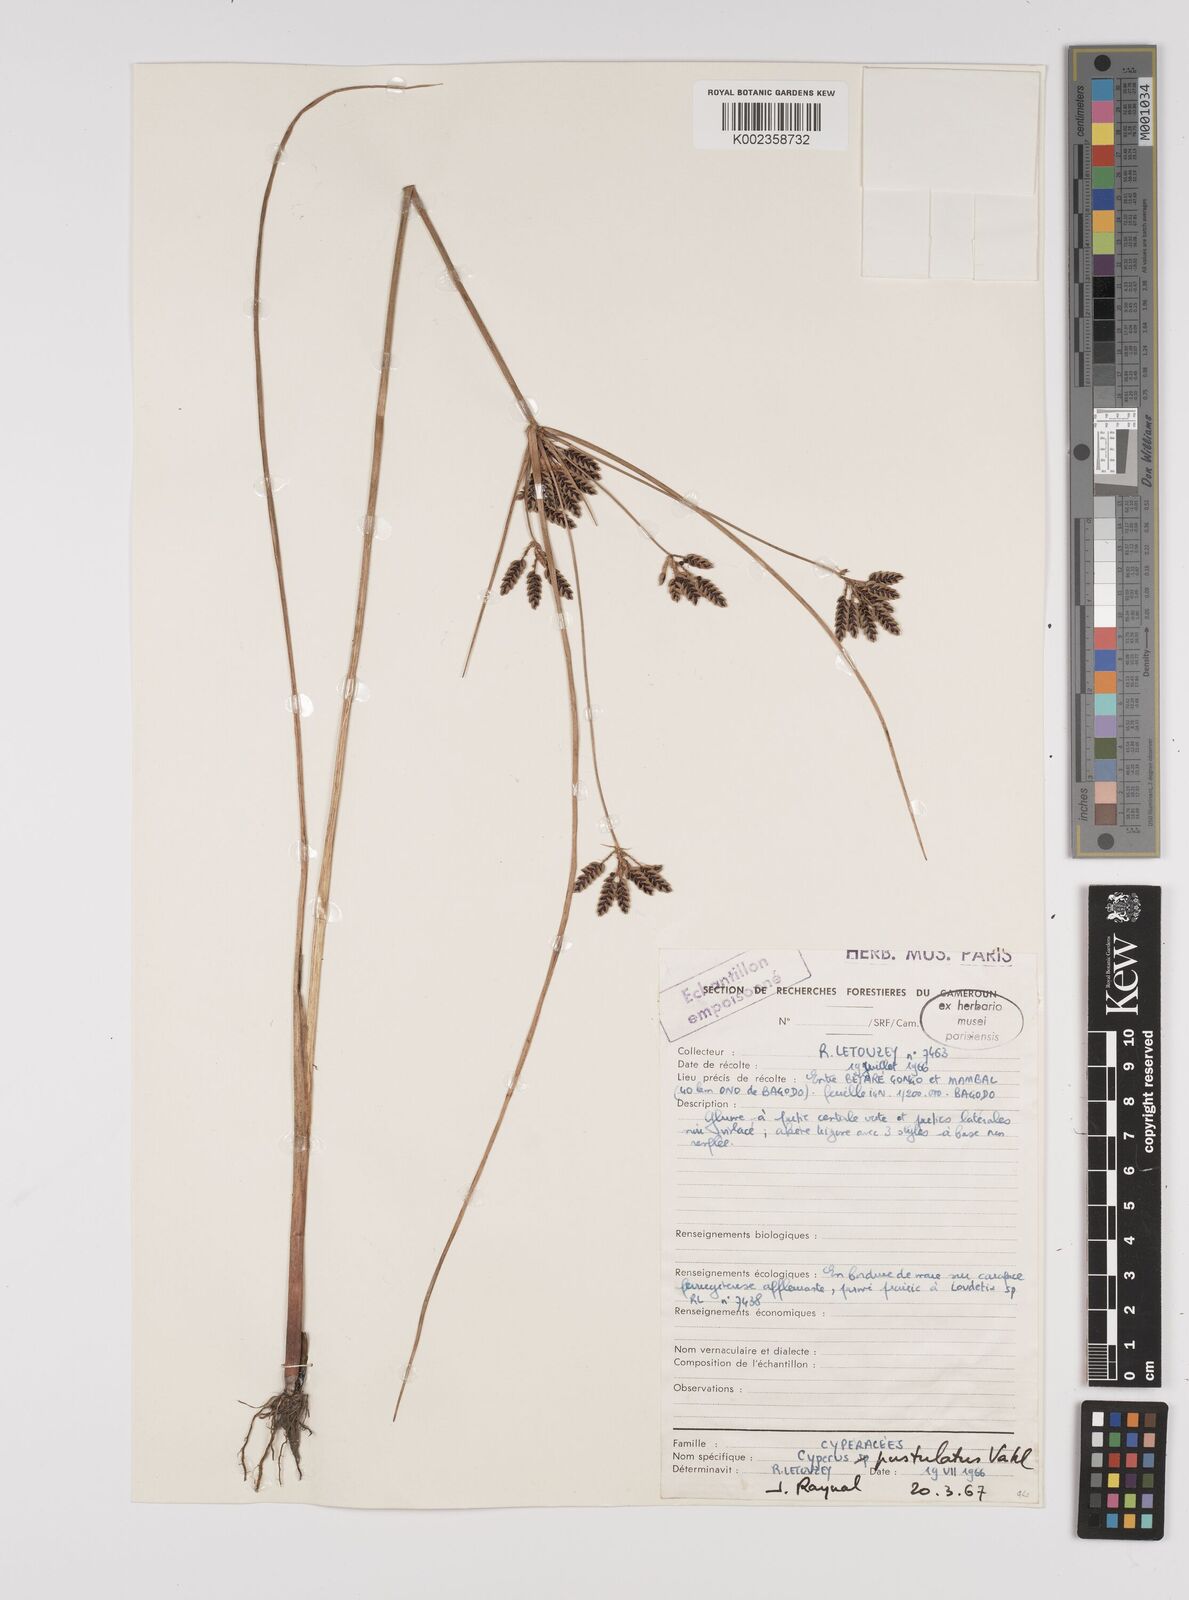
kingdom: Plantae
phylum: Tracheophyta
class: Liliopsida
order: Poales
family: Cyperaceae
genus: Cyperus
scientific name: Cyperus pustulatus
